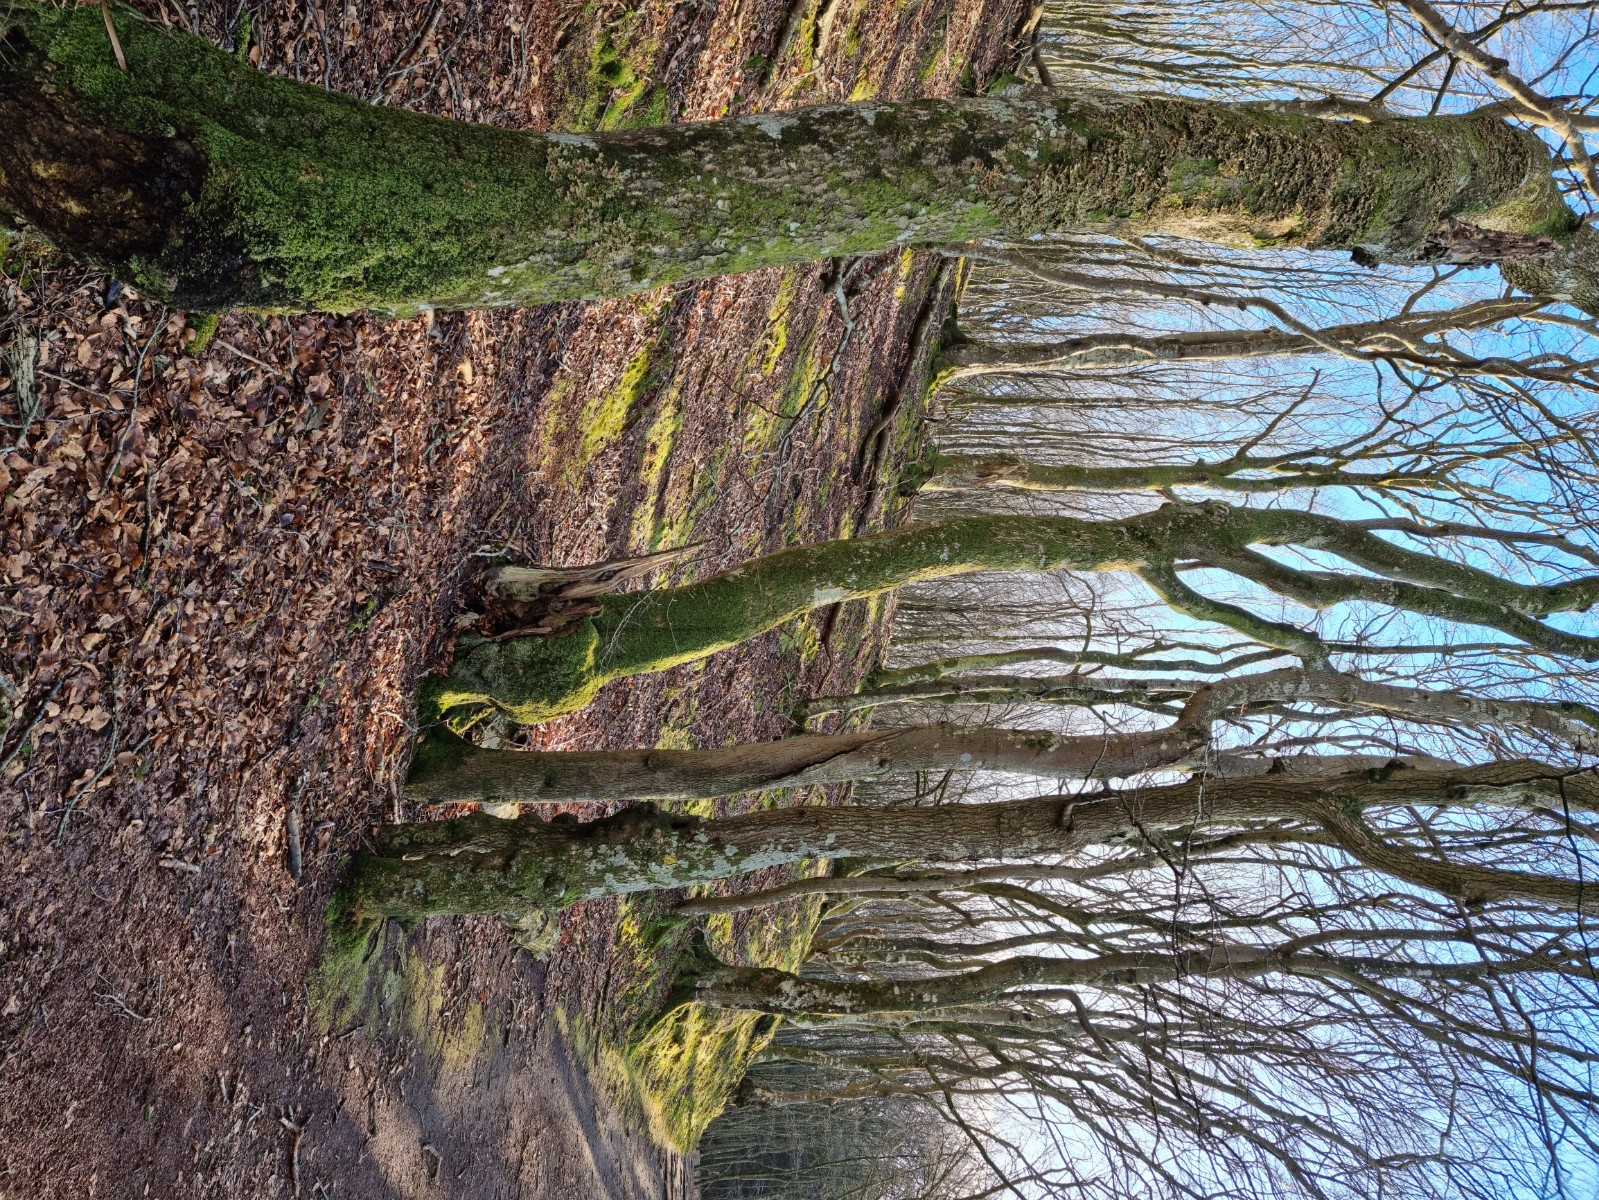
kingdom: Fungi
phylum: Ascomycota
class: Lecanoromycetes
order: Peltigerales
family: Lobariaceae
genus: Lobaria
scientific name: Lobaria pulmonaria
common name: almindelig lungelav
